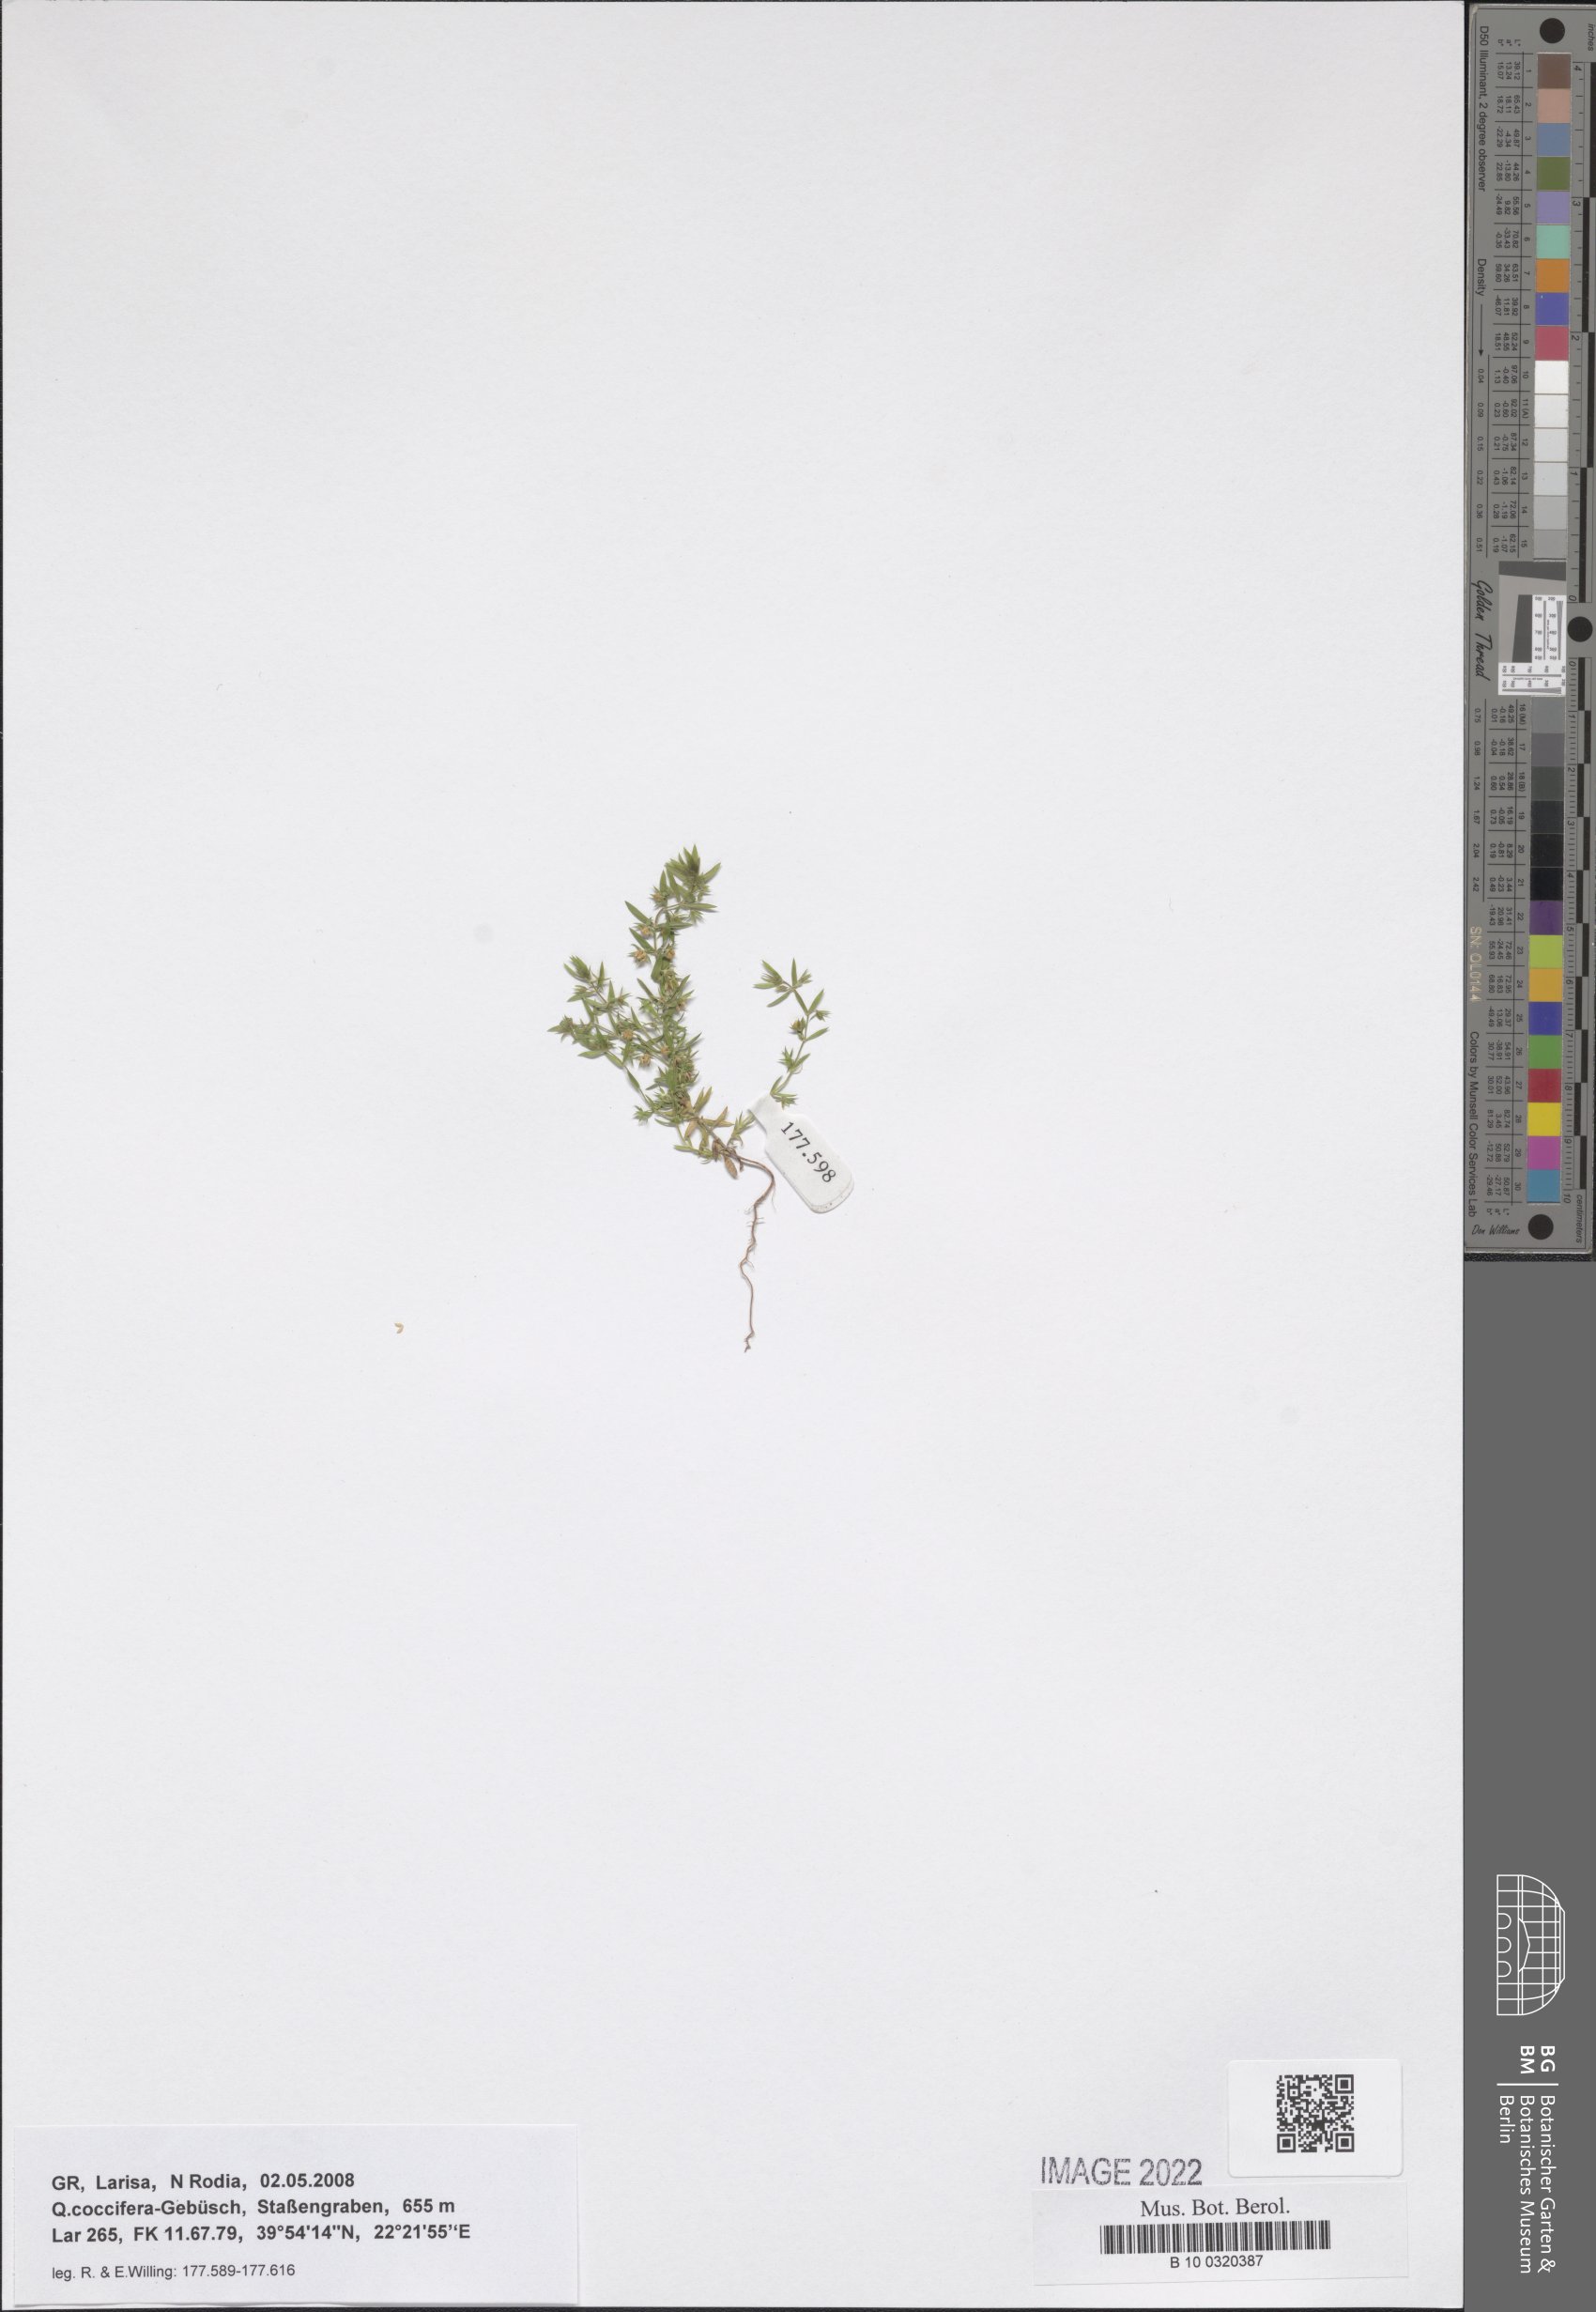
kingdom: Plantae
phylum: Tracheophyta
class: Magnoliopsida
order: Ericales
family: Primulaceae
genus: Lysimachia
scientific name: Lysimachia linum-stellatum
